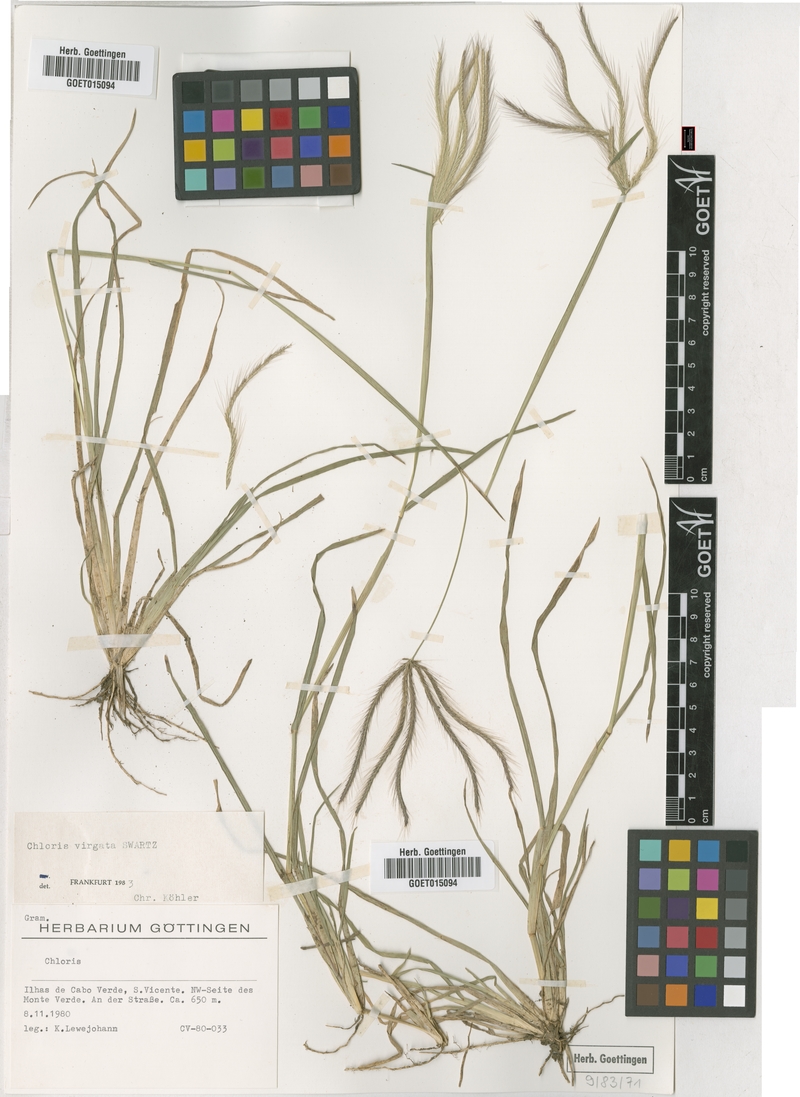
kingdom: Plantae
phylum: Tracheophyta
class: Liliopsida
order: Poales
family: Poaceae
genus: Chloris
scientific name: Chloris virgata
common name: Feathery rhodes-grass
